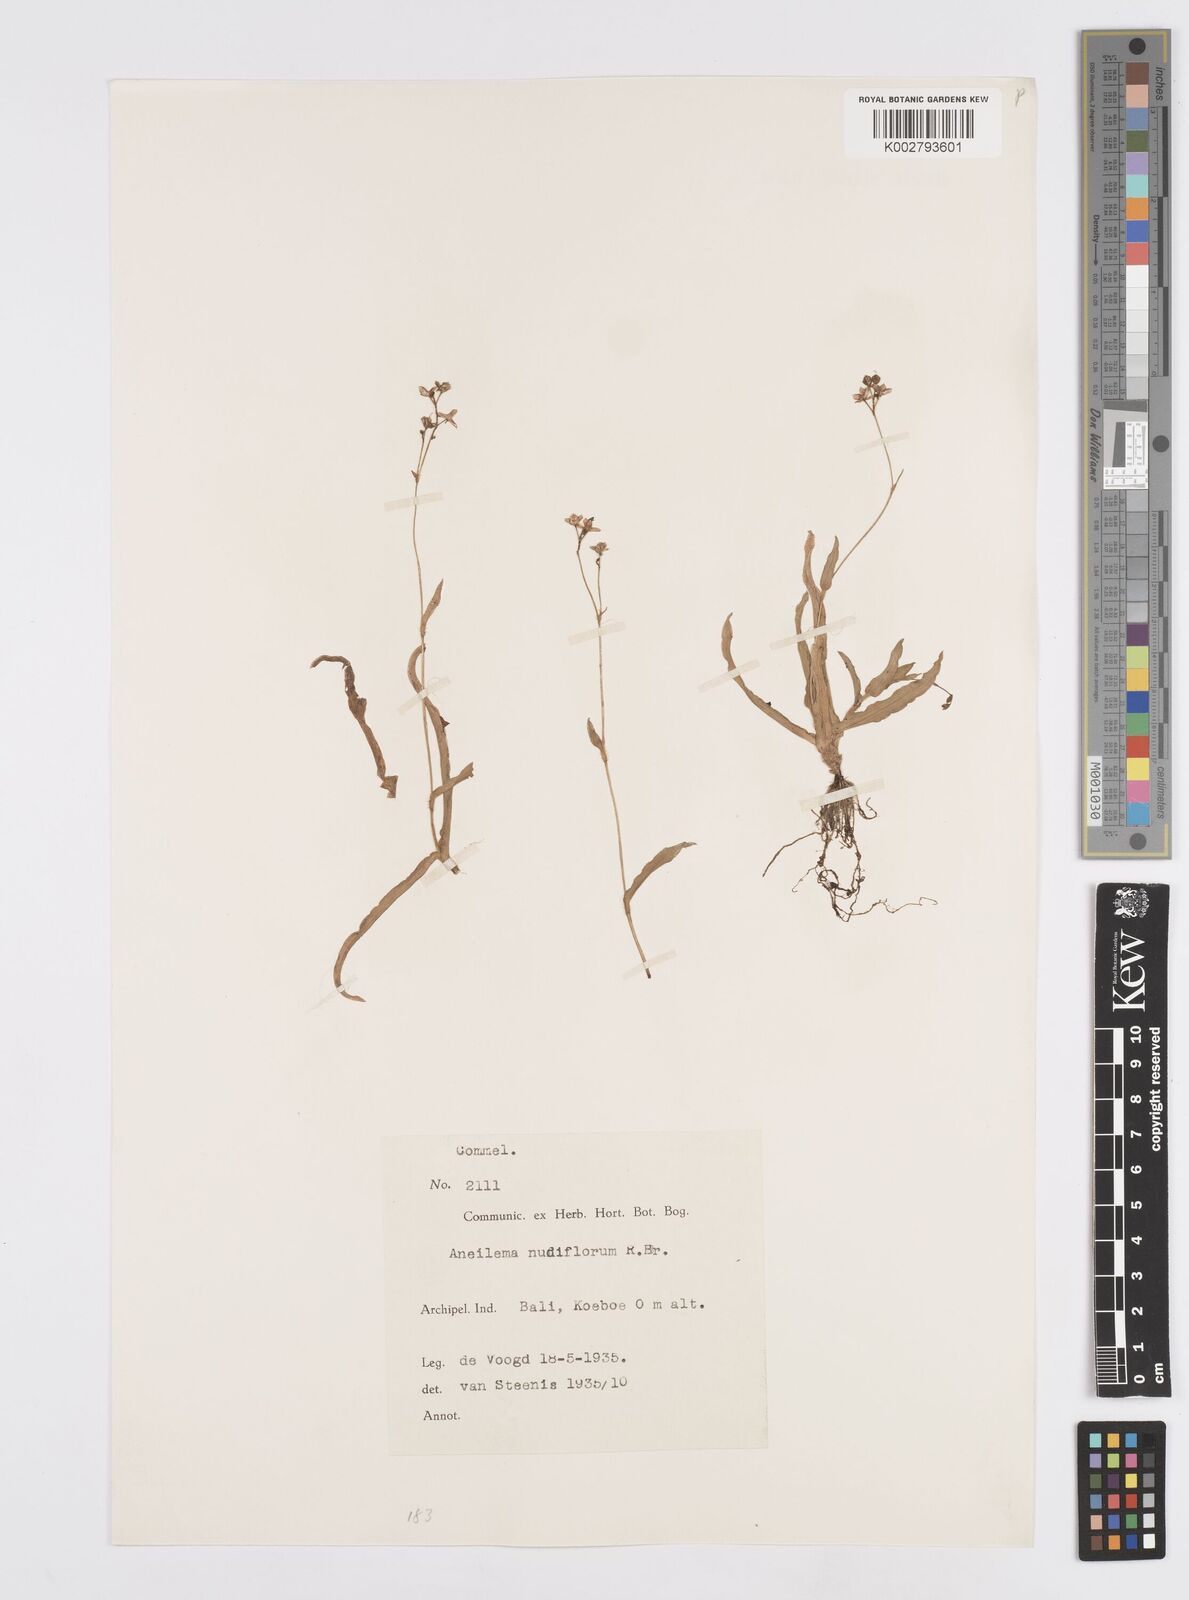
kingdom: Plantae
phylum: Tracheophyta
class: Liliopsida
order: Commelinales
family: Commelinaceae
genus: Murdannia
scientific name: Murdannia nudiflora
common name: Nakedstem dewflower
